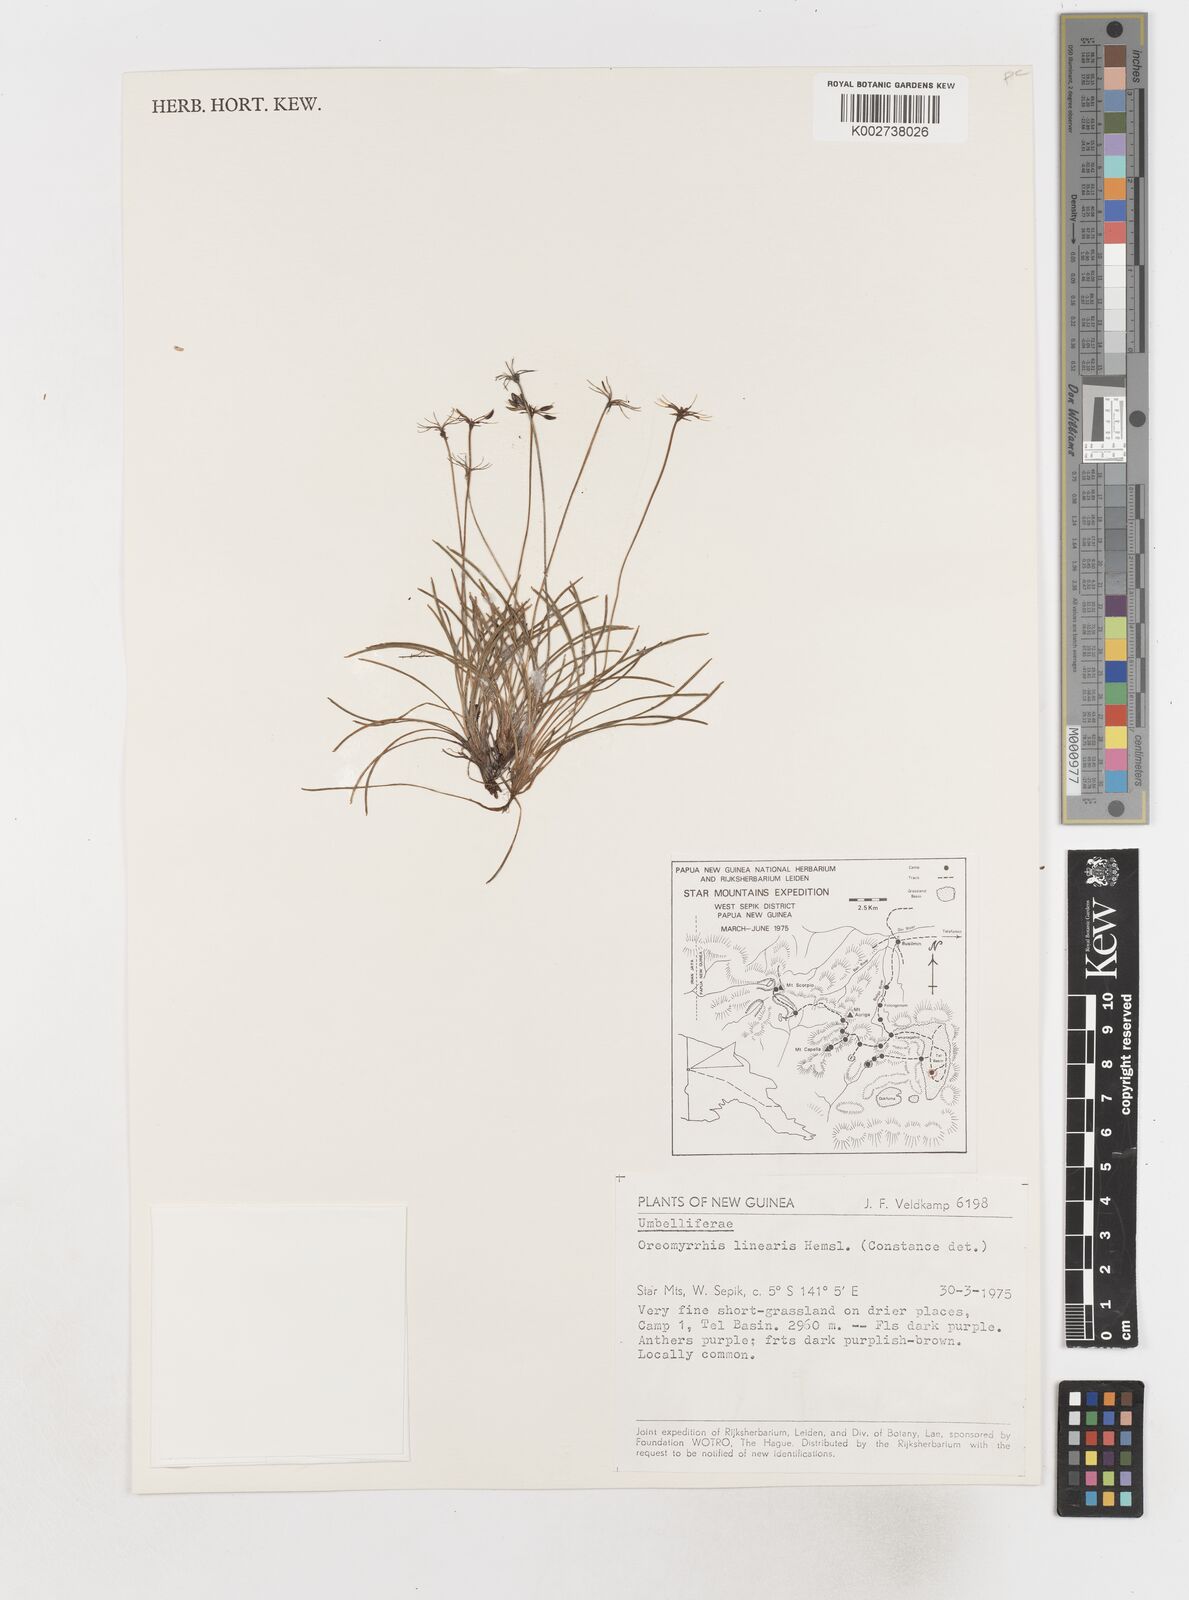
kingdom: Plantae
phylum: Tracheophyta
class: Magnoliopsida
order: Apiales
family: Apiaceae
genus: Chaerophyllum
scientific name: Chaerophyllum lineare
